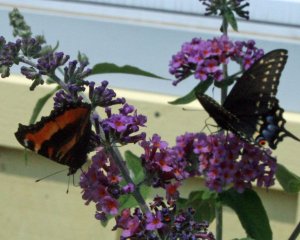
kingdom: Animalia
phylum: Arthropoda
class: Insecta
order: Lepidoptera
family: Nymphalidae
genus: Aglais
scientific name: Aglais milberti
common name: Milbert's Tortoiseshell
